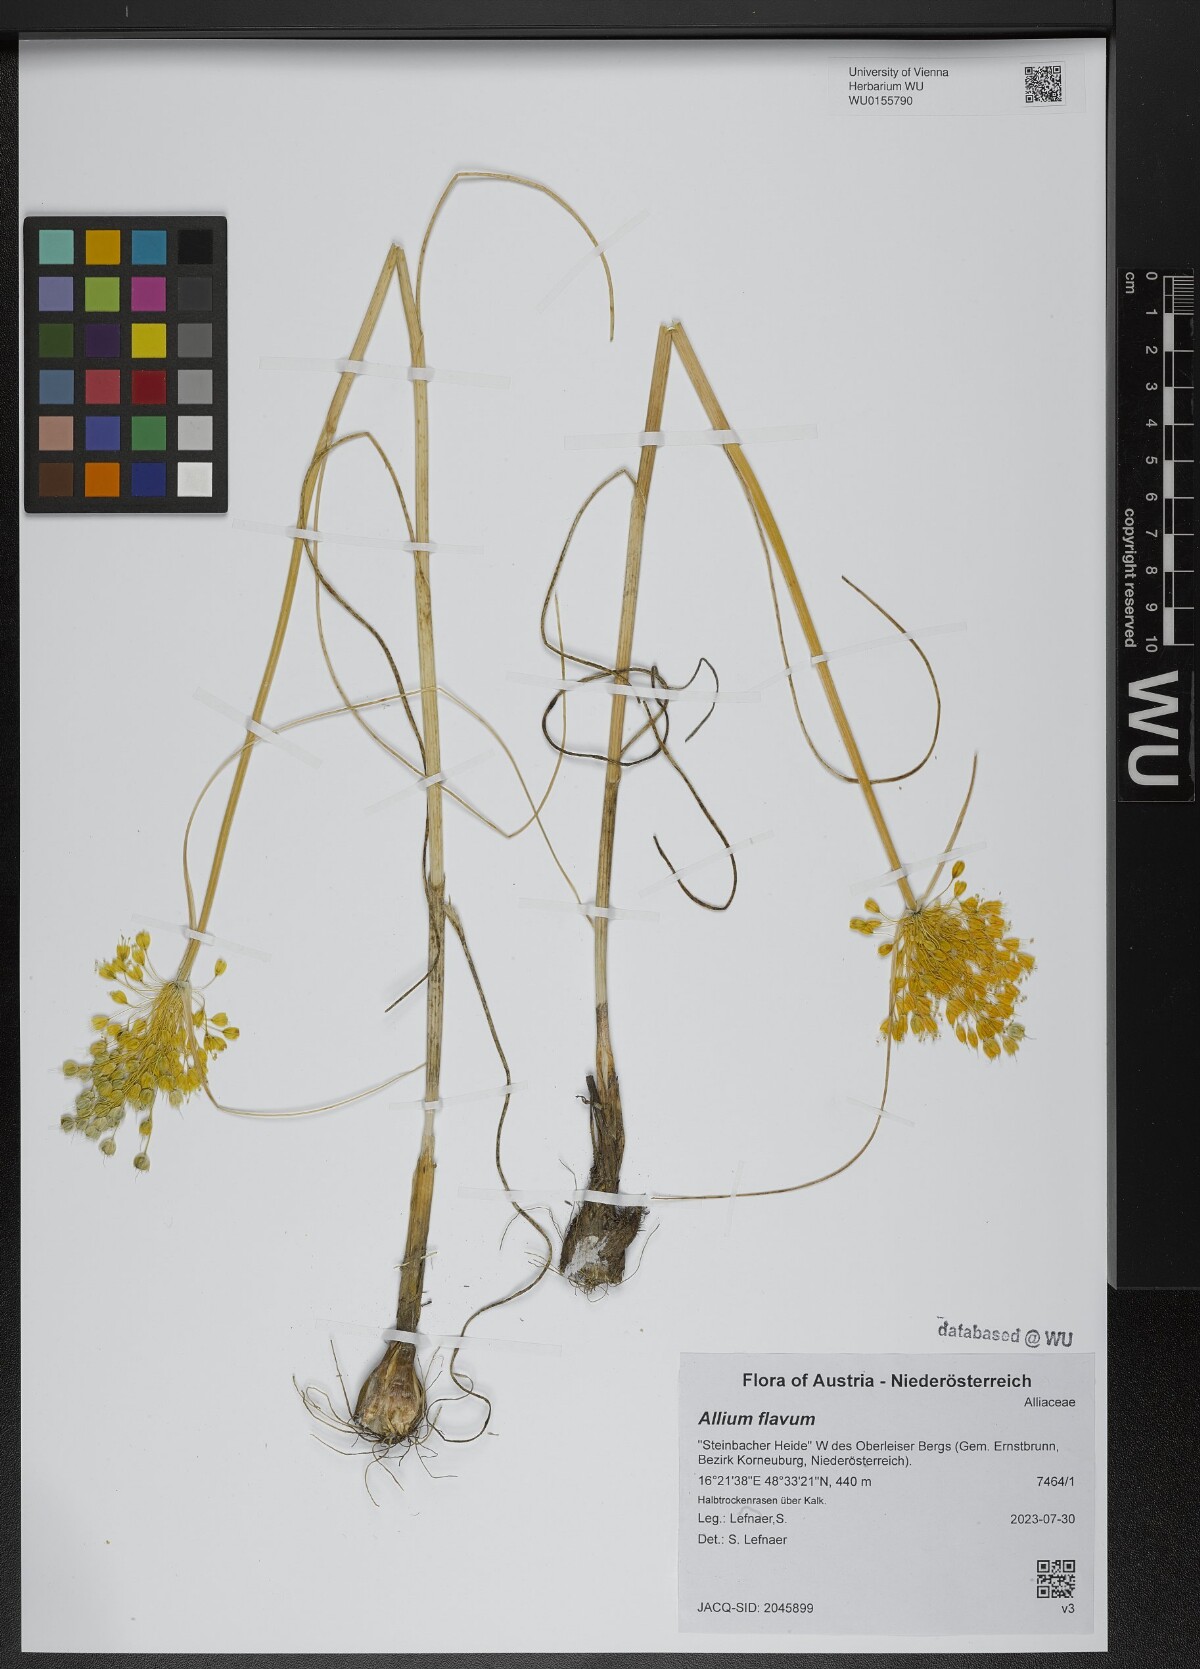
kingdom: Plantae
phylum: Tracheophyta
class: Liliopsida
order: Asparagales
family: Amaryllidaceae
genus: Allium
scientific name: Allium flavum
